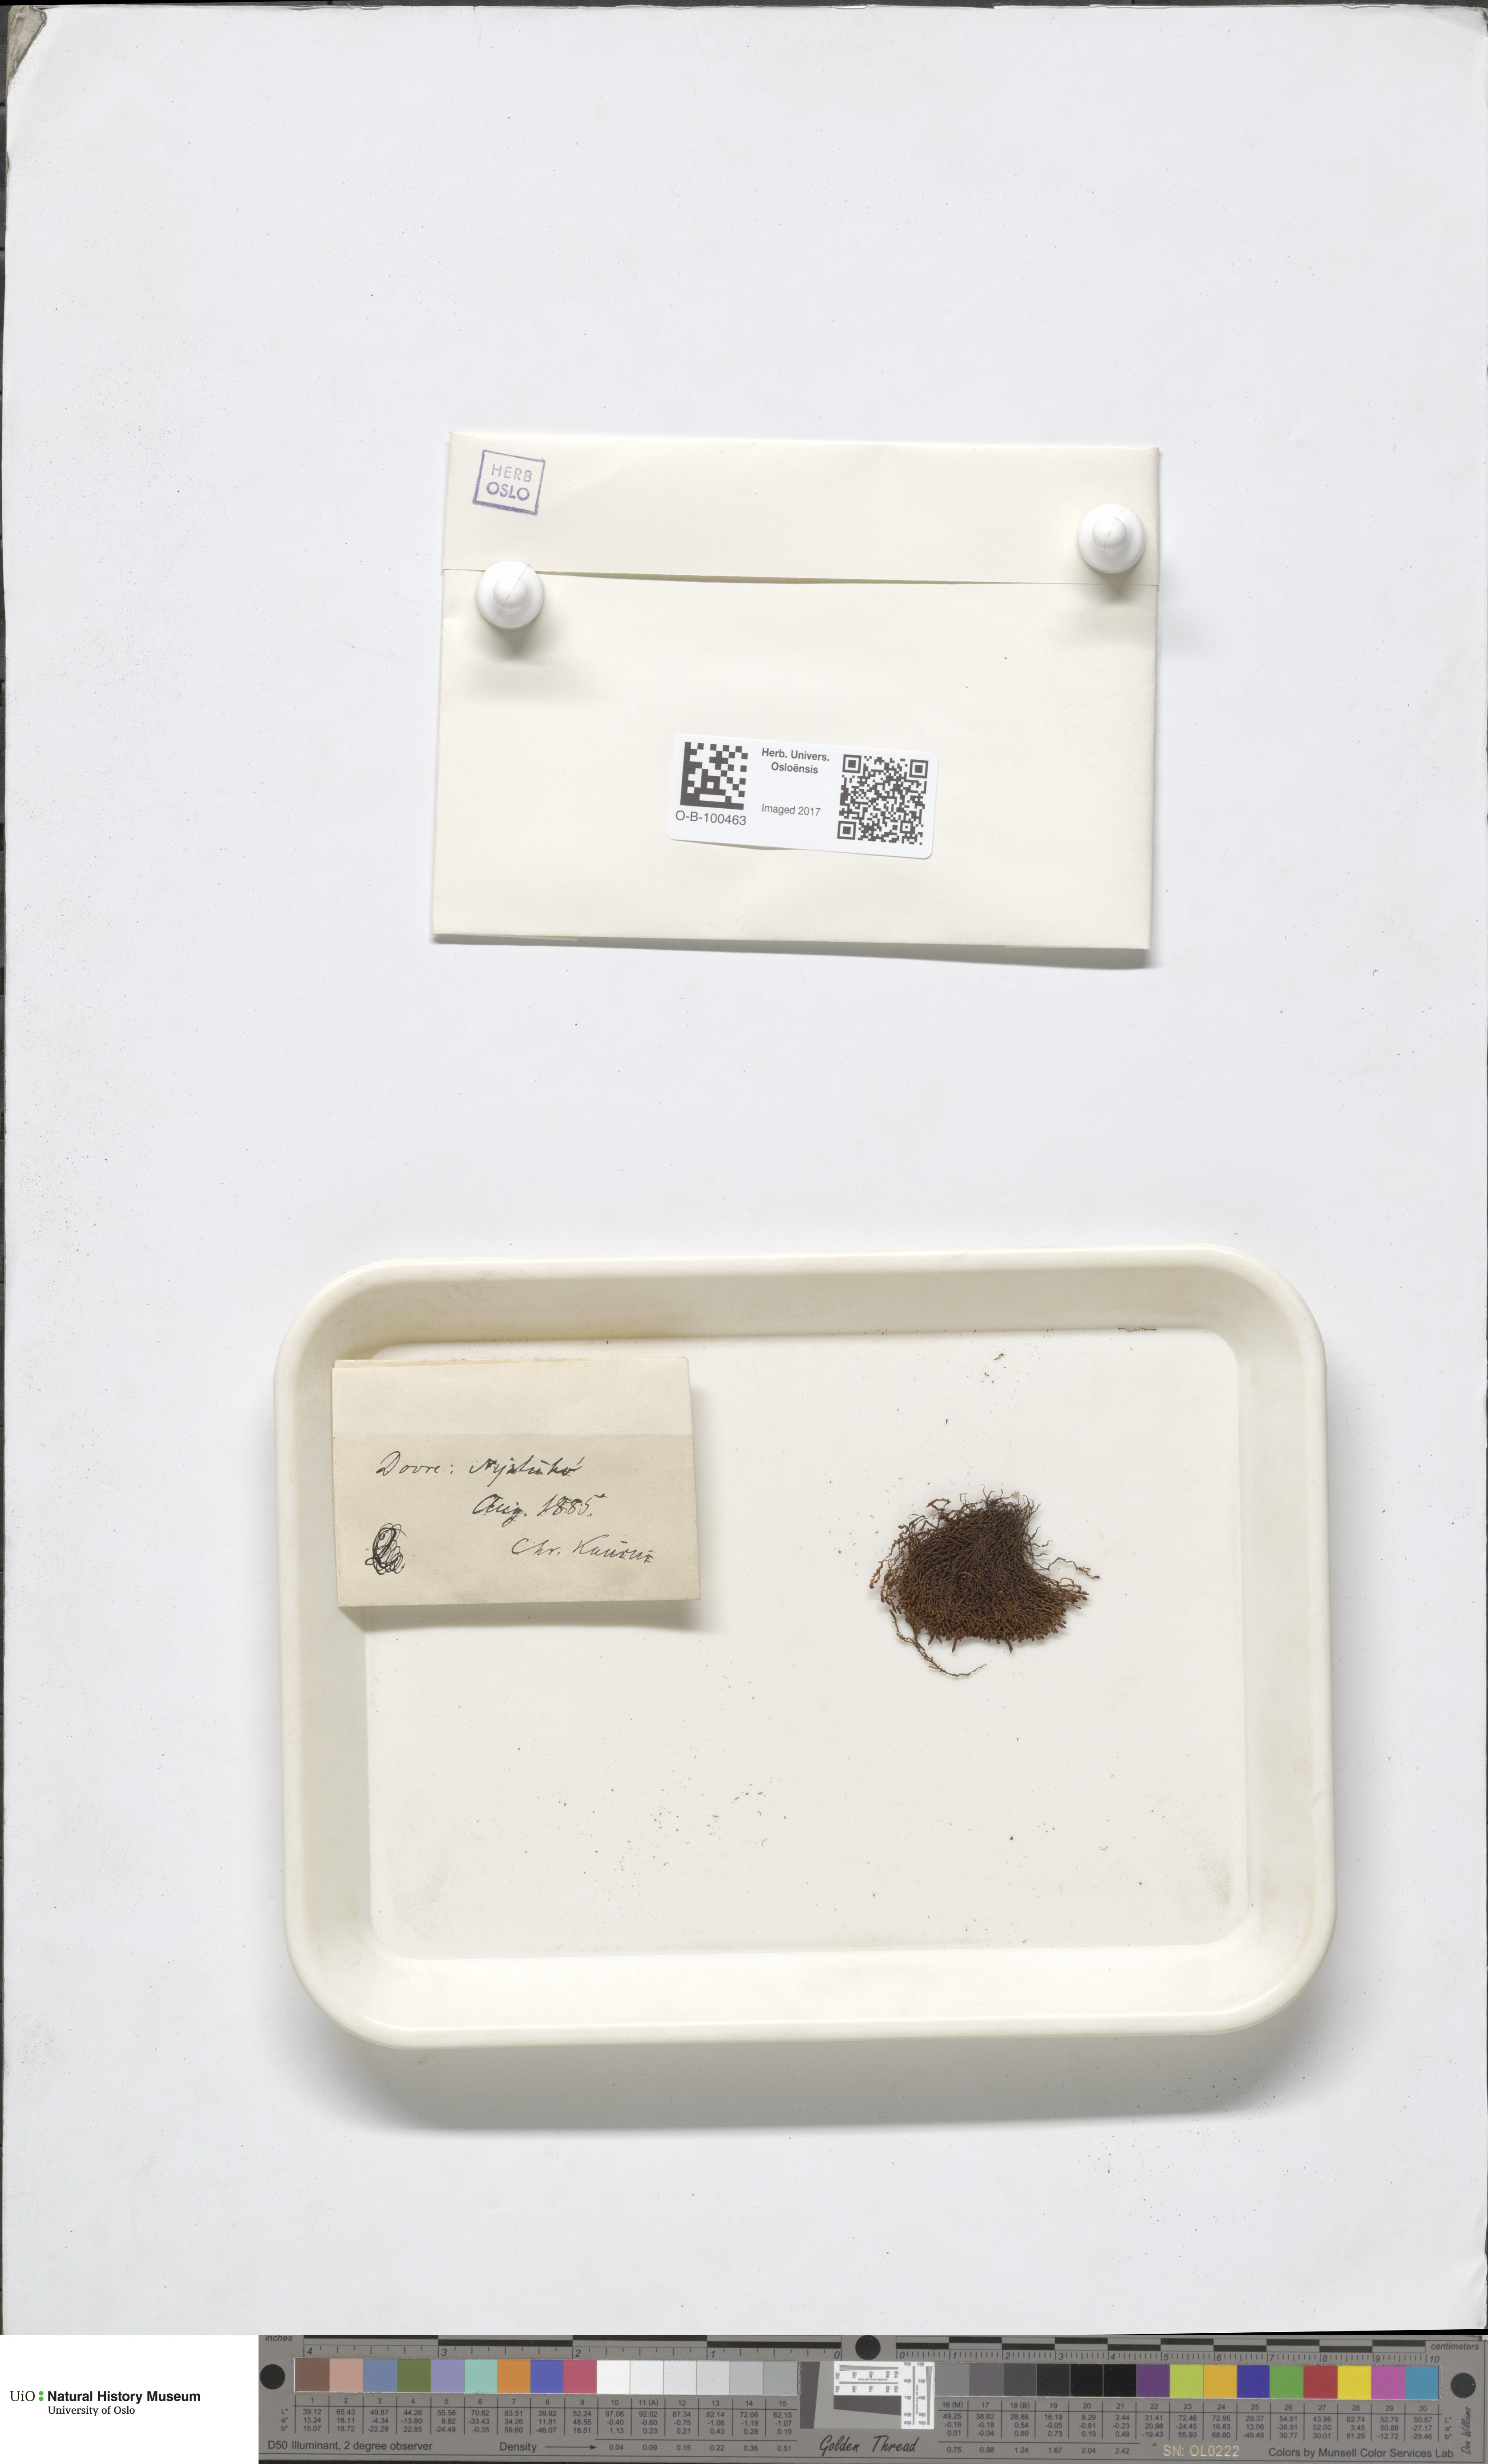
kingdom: Plantae
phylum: Bryophyta
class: Andreaeopsida
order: Andreaeales
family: Andreaeaceae
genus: Andreaea
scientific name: Andreaea alpina
